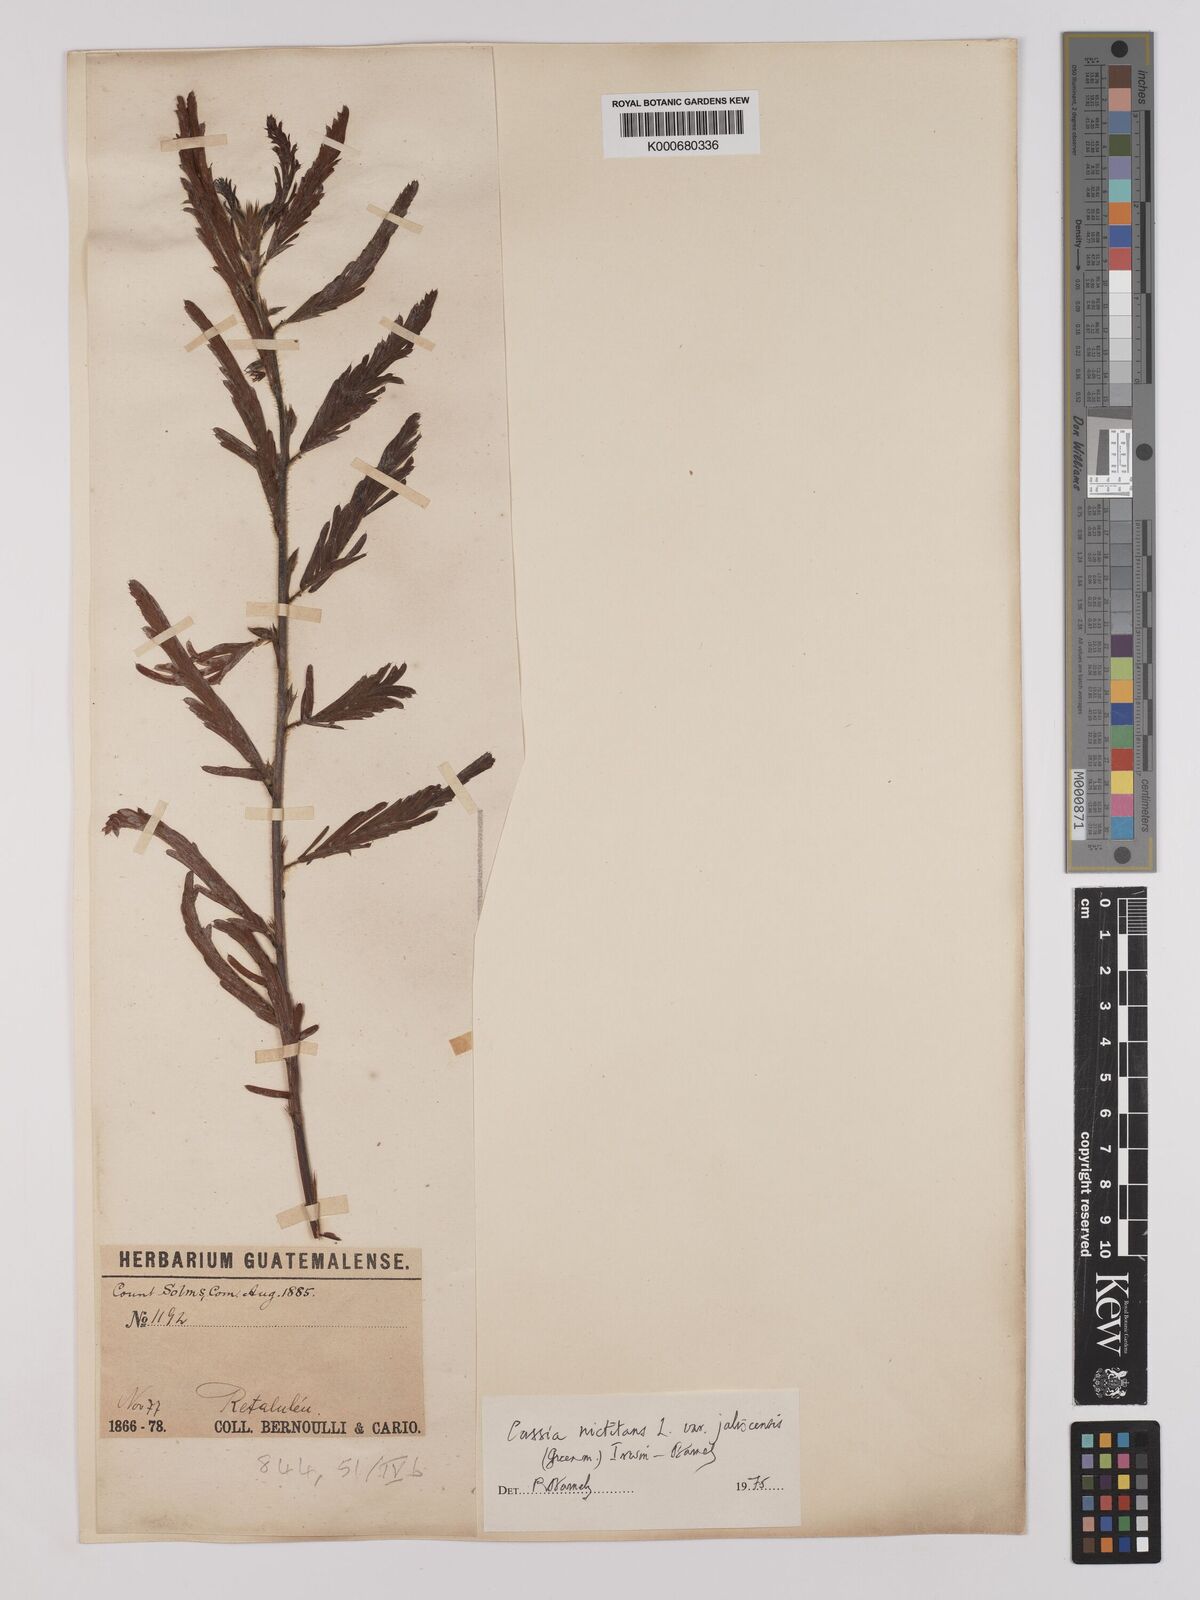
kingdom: Plantae
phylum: Tracheophyta
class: Magnoliopsida
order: Fabales
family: Fabaceae
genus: Chamaecrista
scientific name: Chamaecrista nictitans
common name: Sensitive cassia
